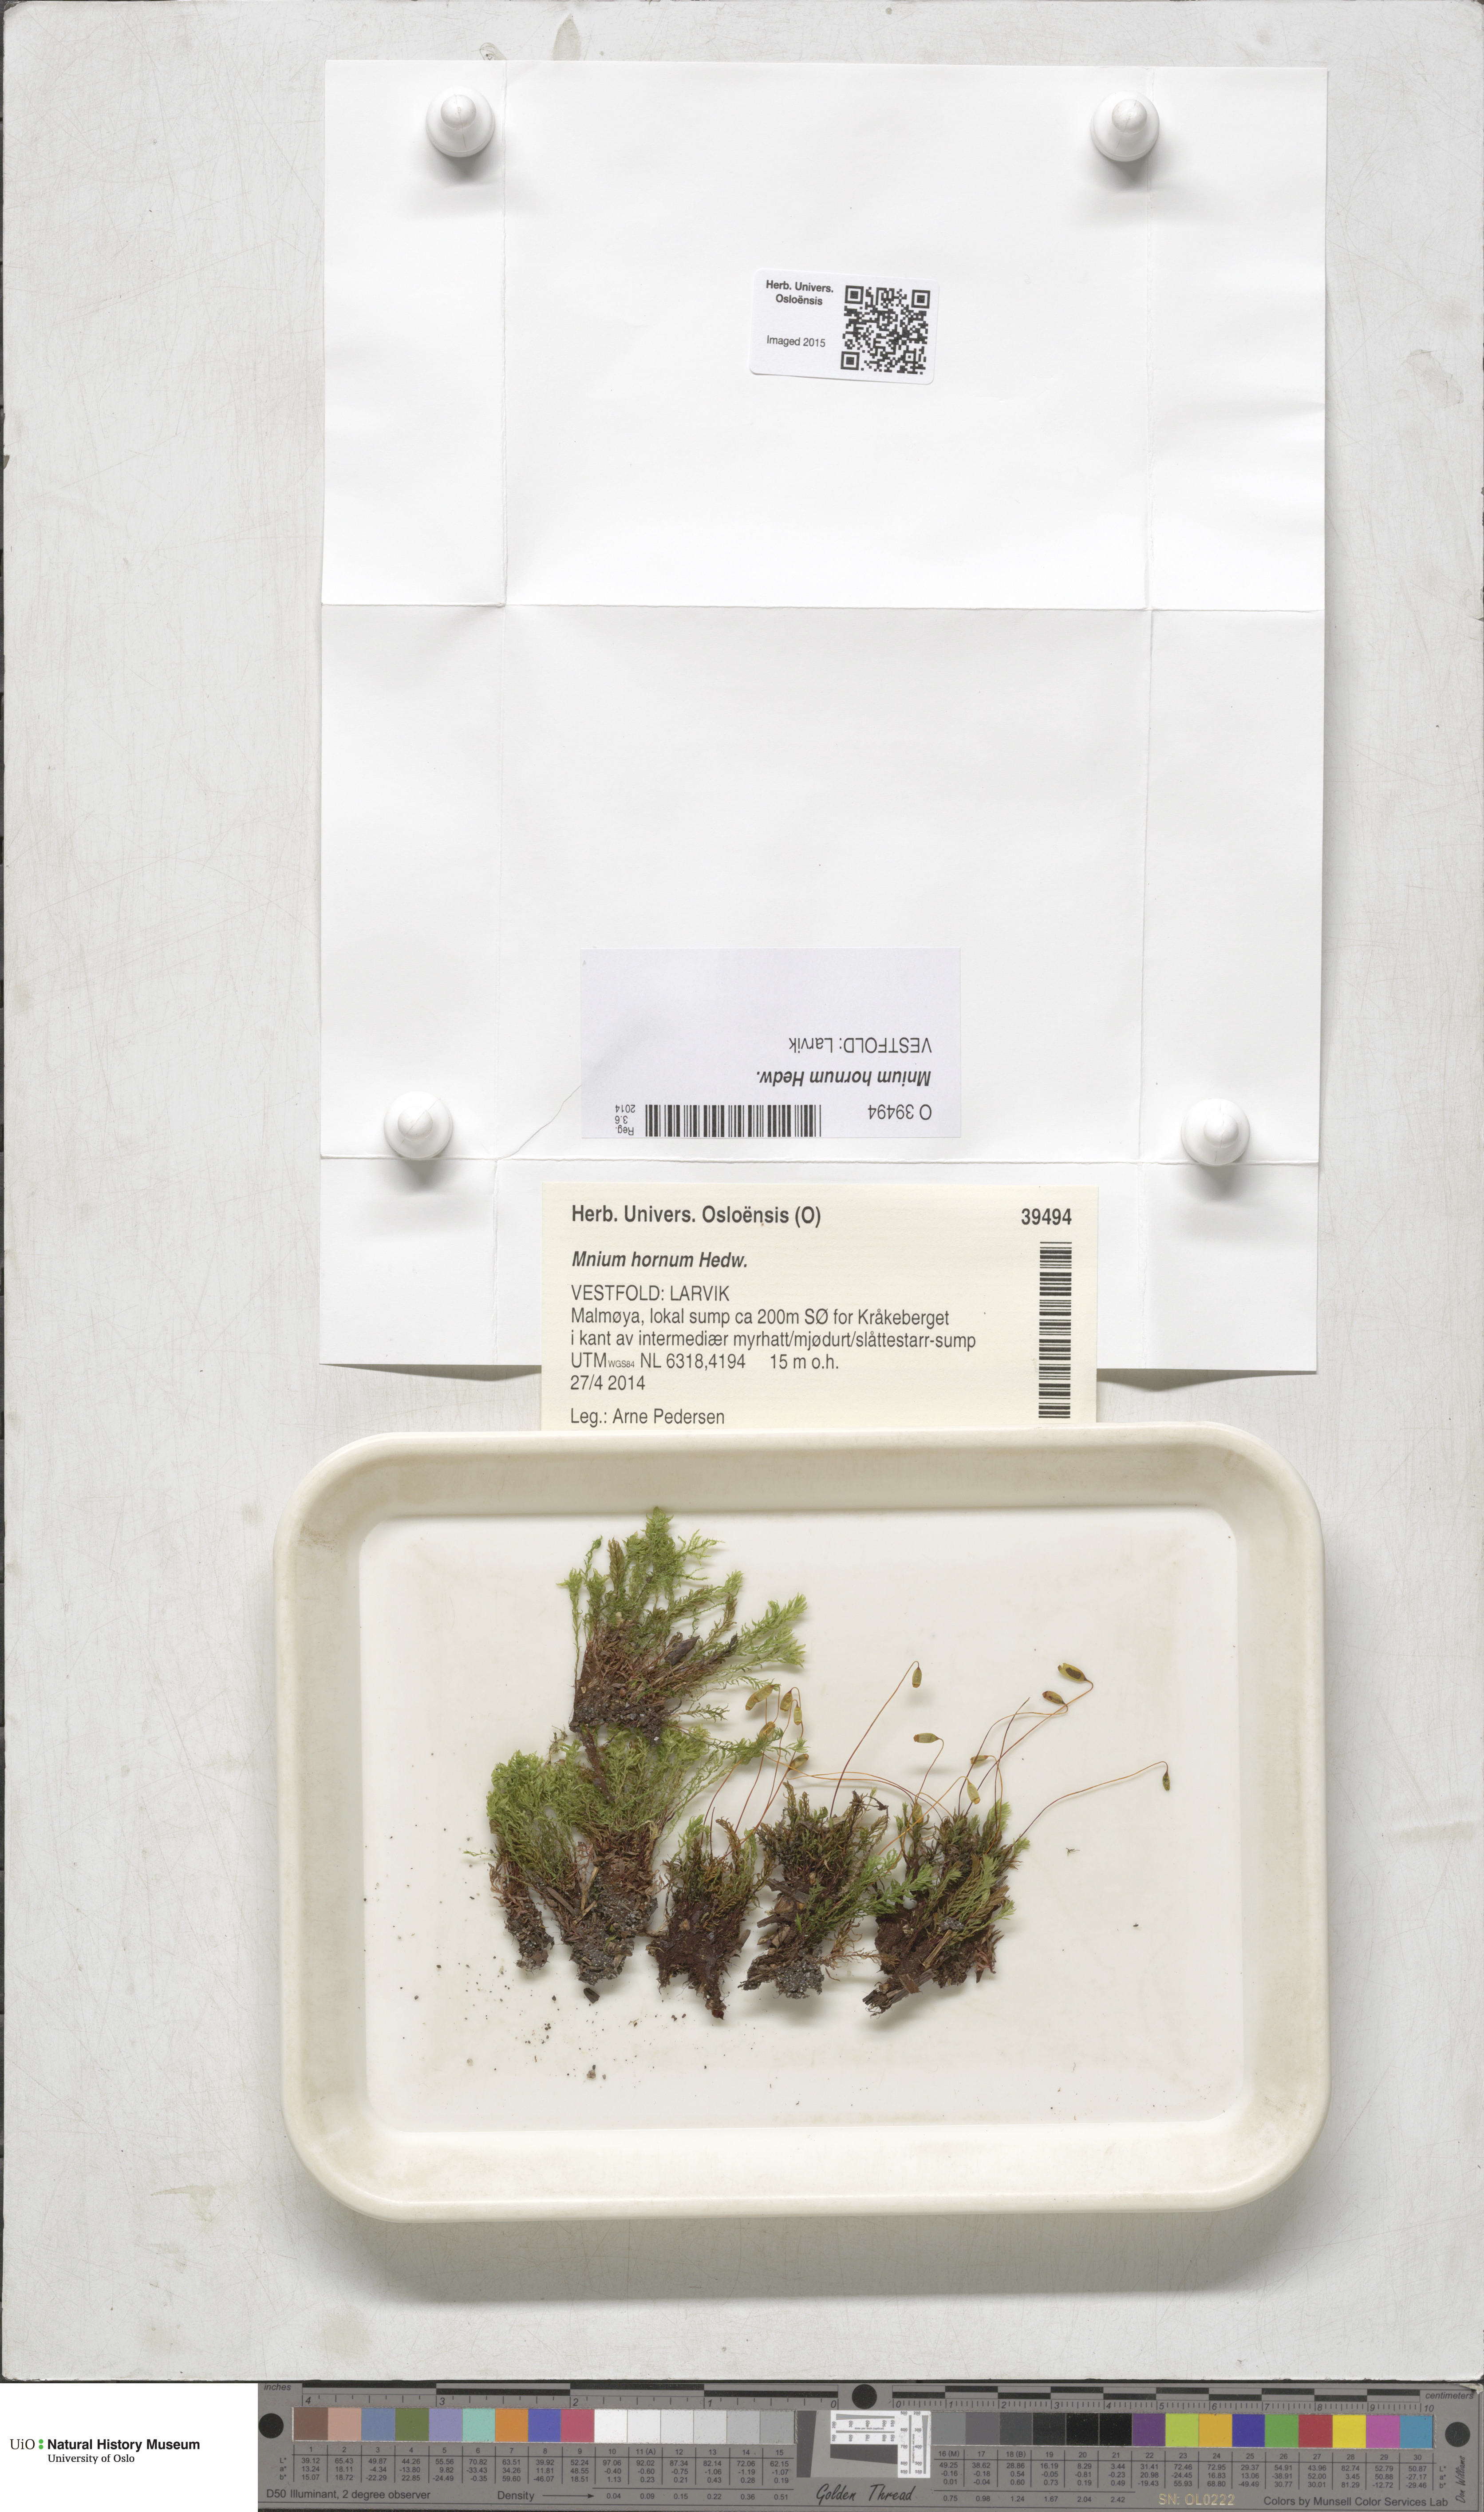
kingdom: Plantae
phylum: Bryophyta
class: Bryopsida
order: Bryales
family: Mniaceae
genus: Mnium
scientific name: Mnium hornum
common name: Swan's-neck leafy moss
